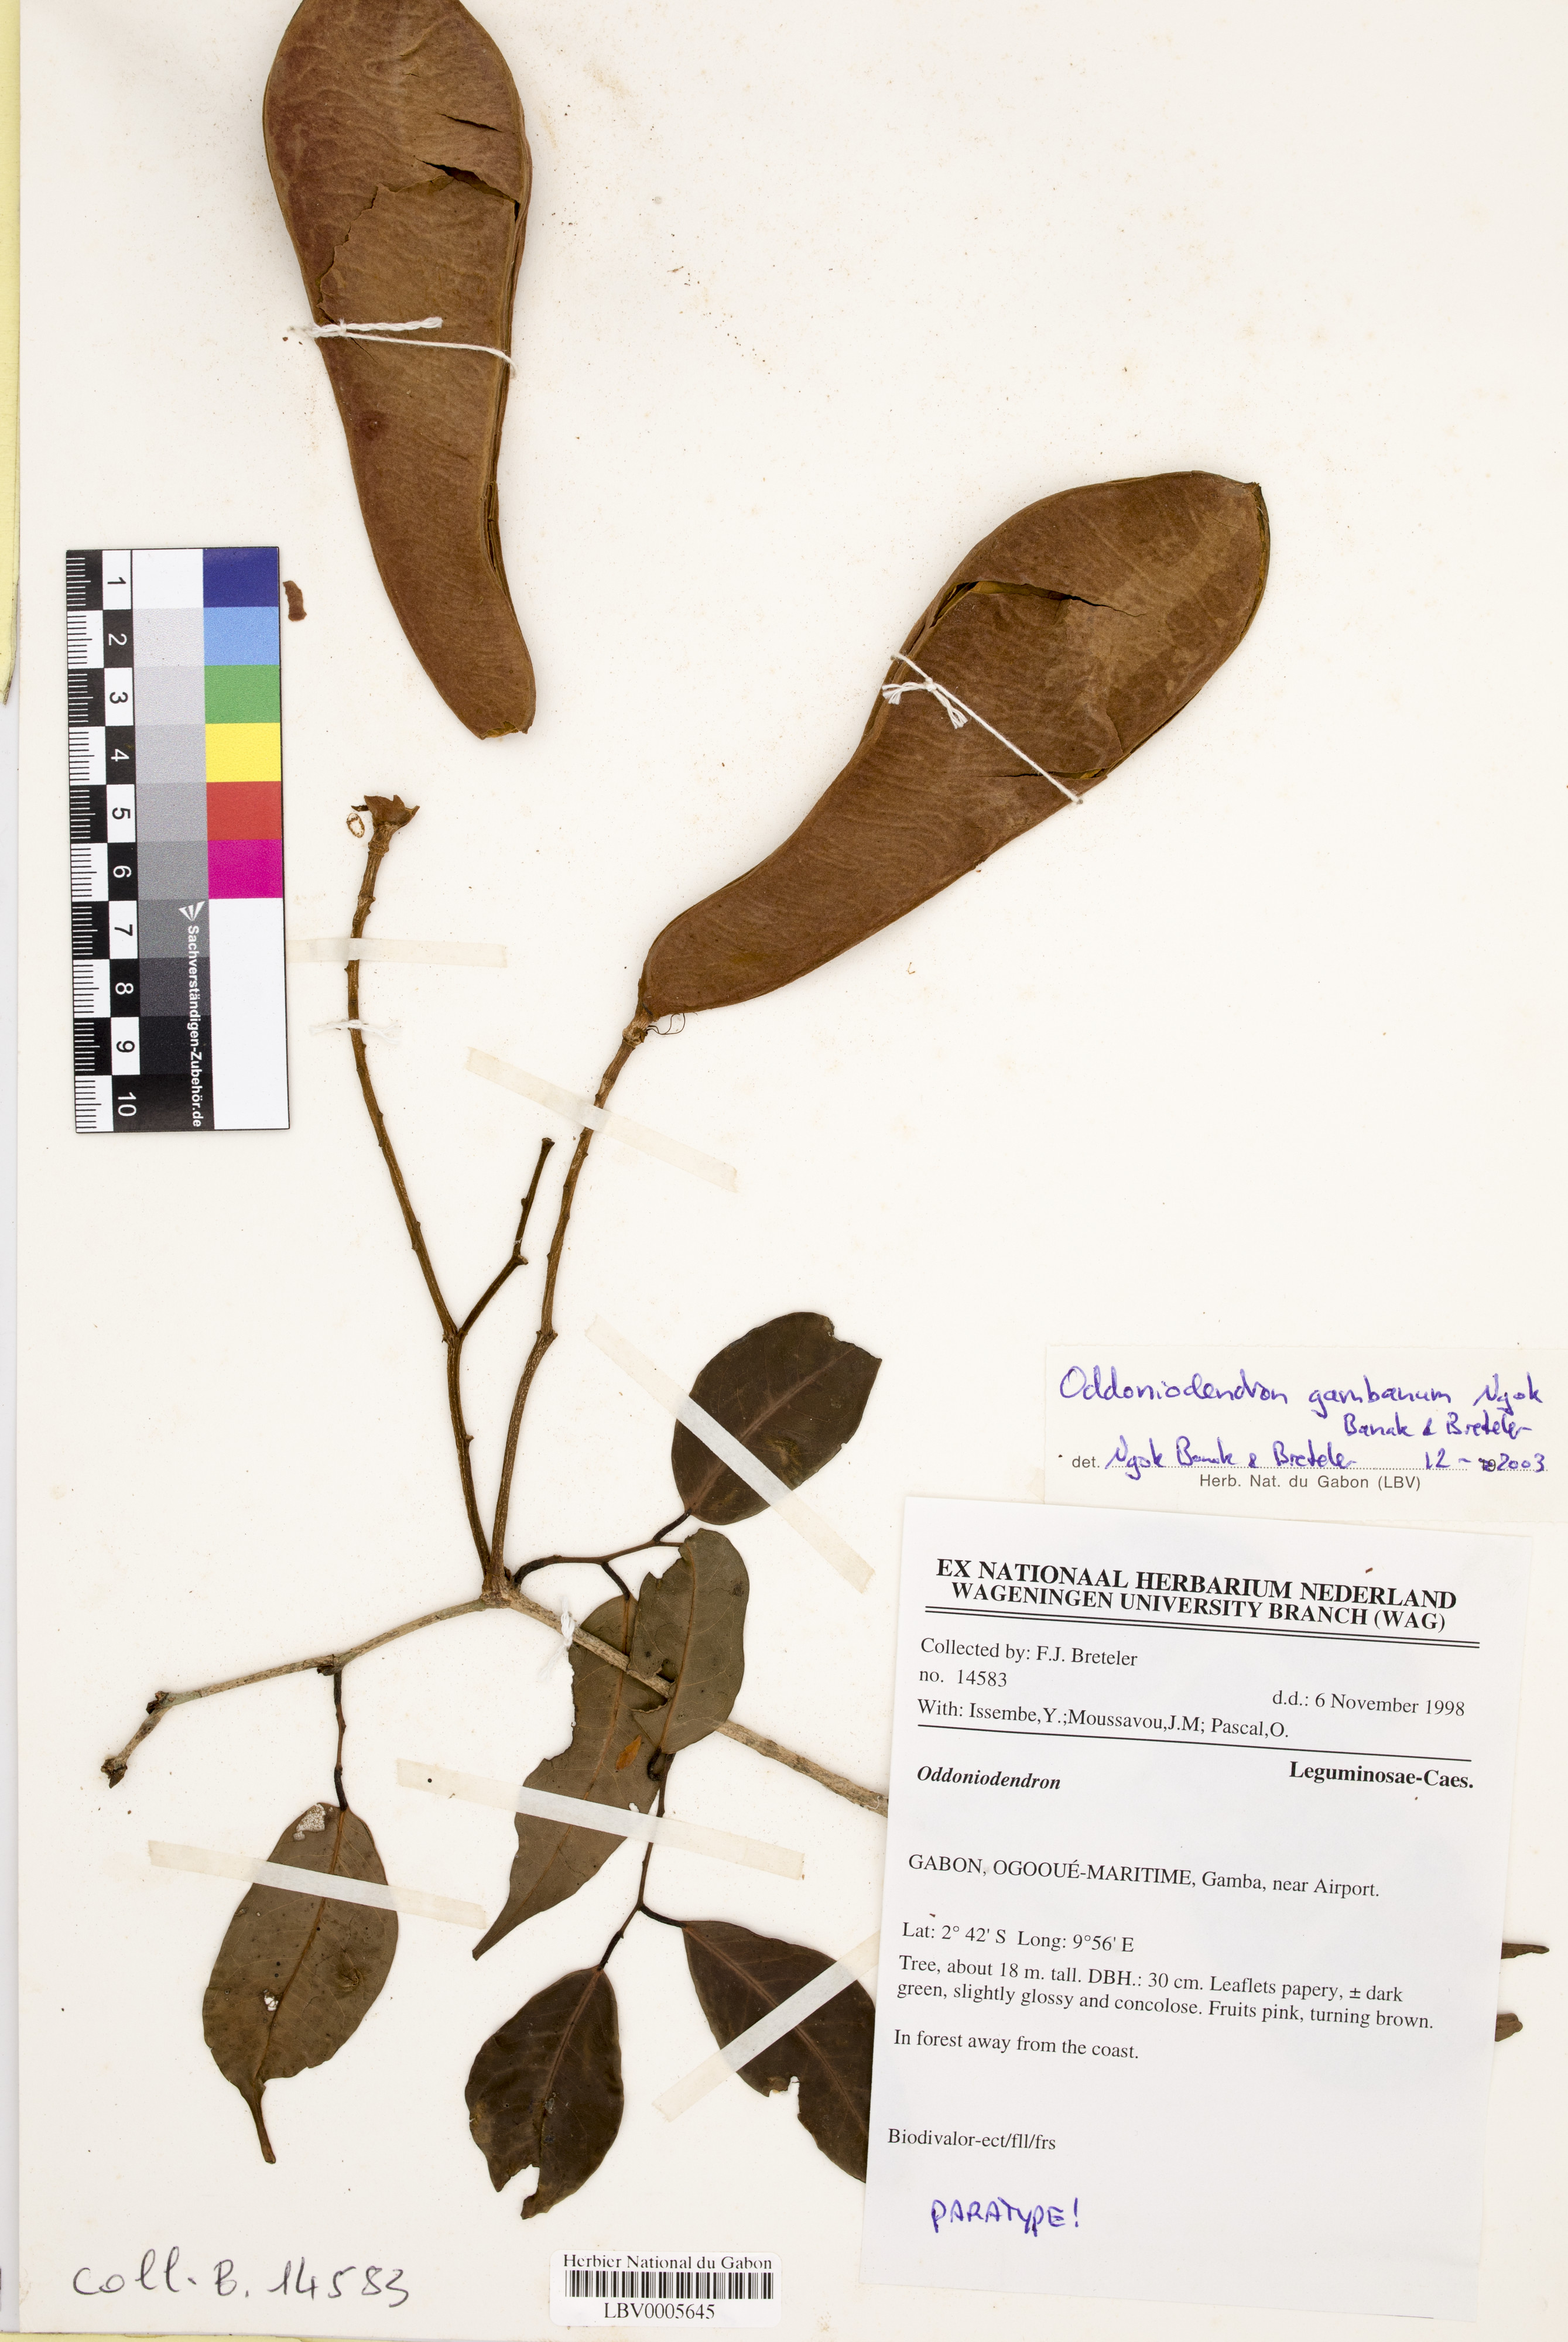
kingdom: Plantae
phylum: Tracheophyta
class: Magnoliopsida
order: Fabales
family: Fabaceae
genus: Oddoniodendron
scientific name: Oddoniodendron gambanum
